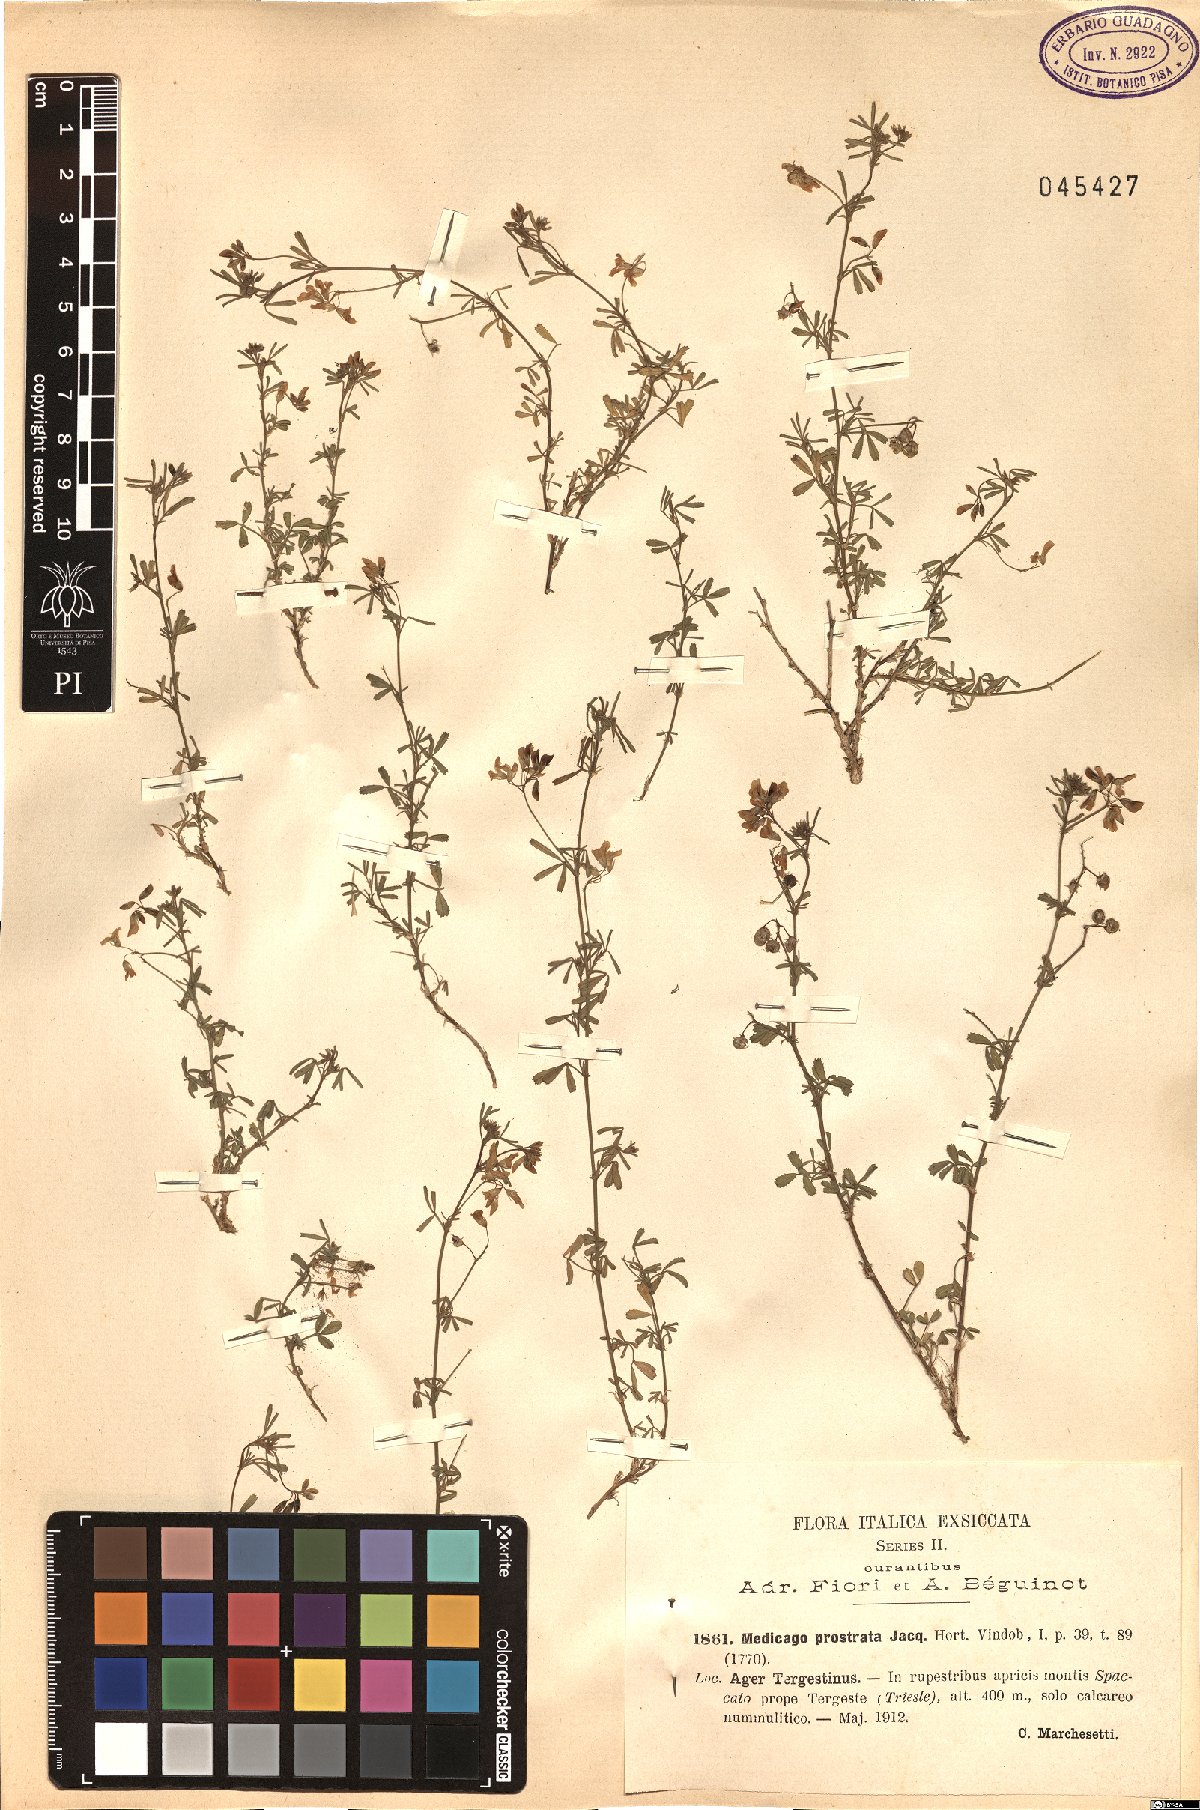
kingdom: Plantae
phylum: Tracheophyta
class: Magnoliopsida
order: Fabales
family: Fabaceae
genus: Medicago
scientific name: Medicago prostrata
